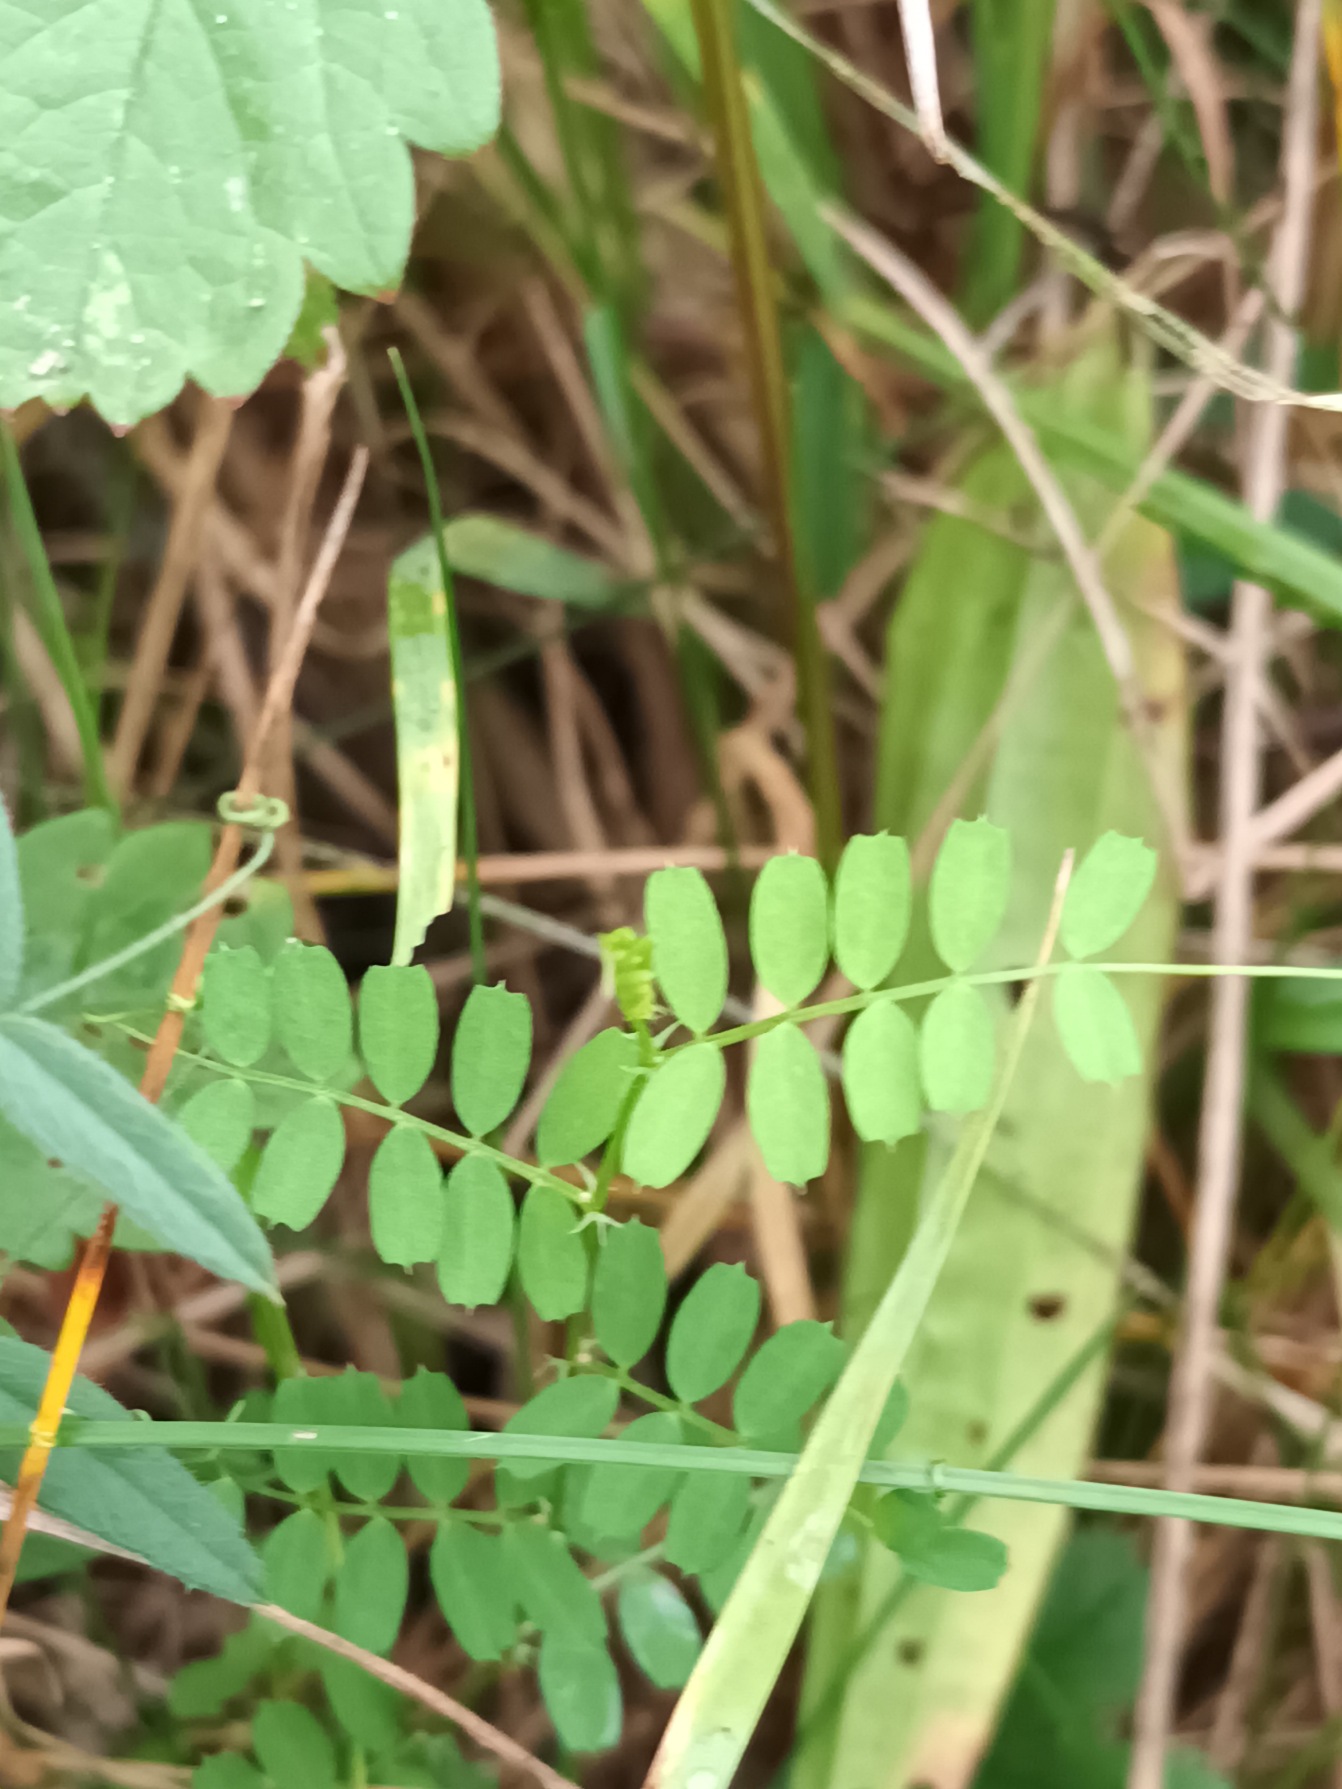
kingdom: Plantae
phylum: Tracheophyta
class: Magnoliopsida
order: Fabales
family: Fabaceae
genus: Vicia
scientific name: Vicia hirsuta
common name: Tofrøet vikke
